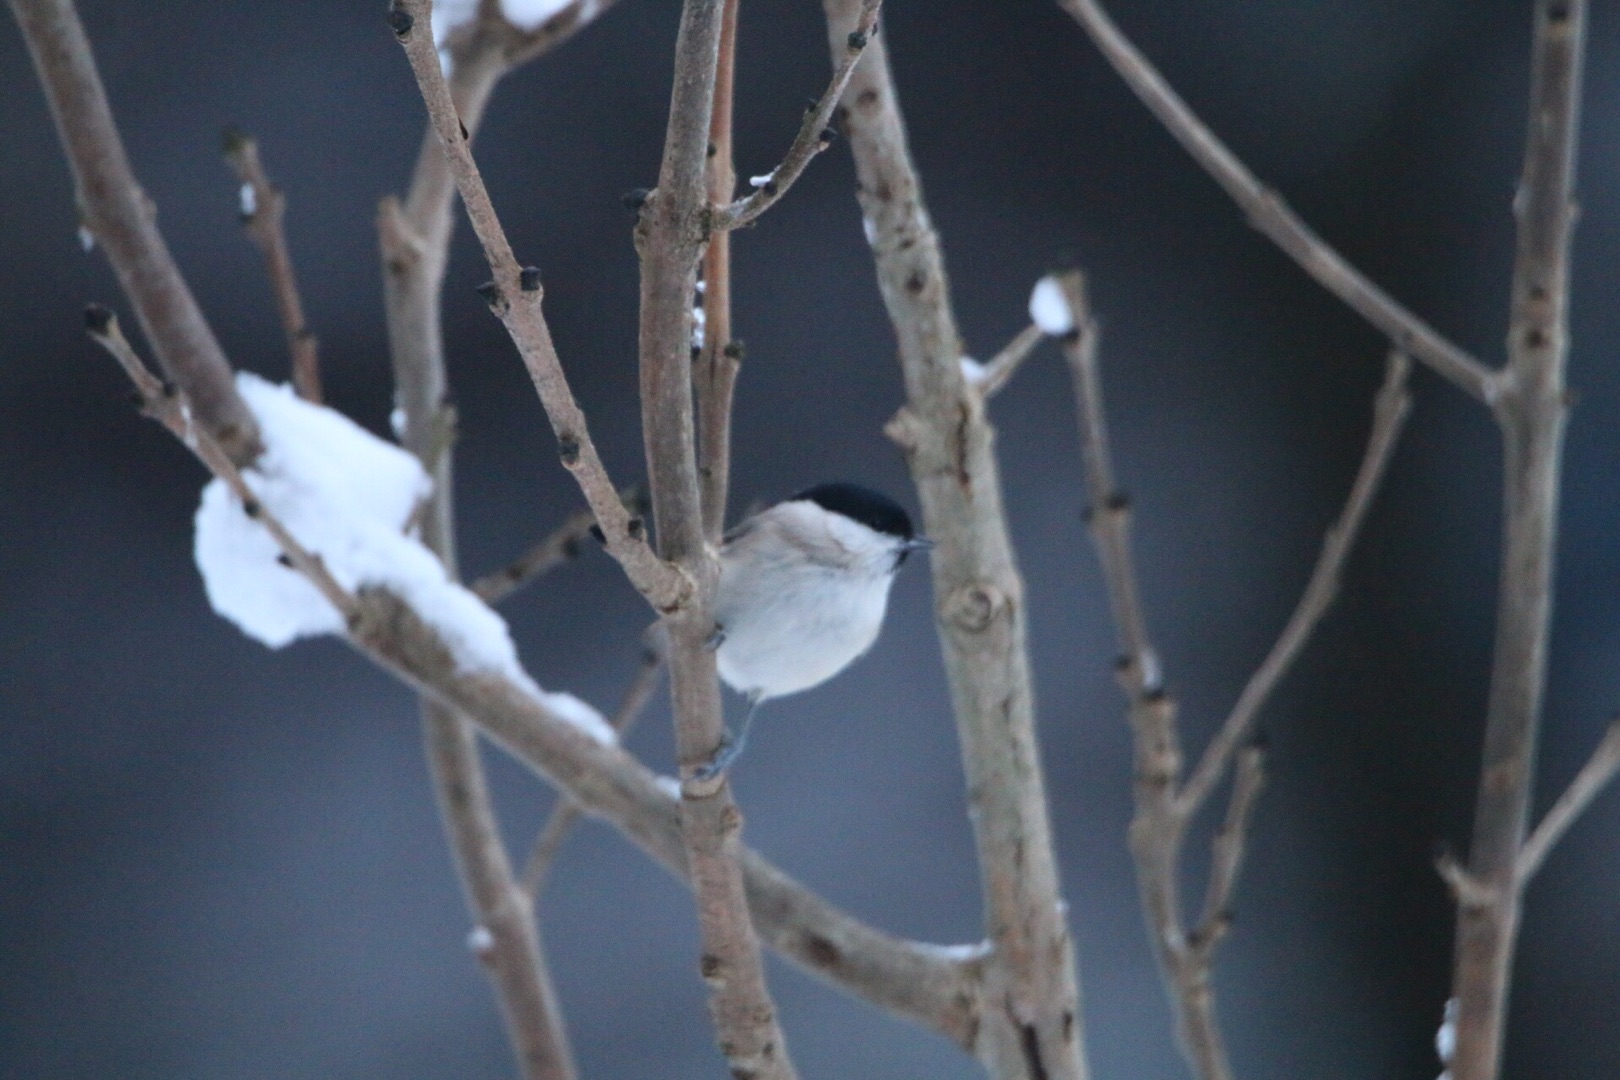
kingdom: Animalia
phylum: Chordata
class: Aves
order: Passeriformes
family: Paridae
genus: Poecile
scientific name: Poecile palustris
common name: Sumpmejse
